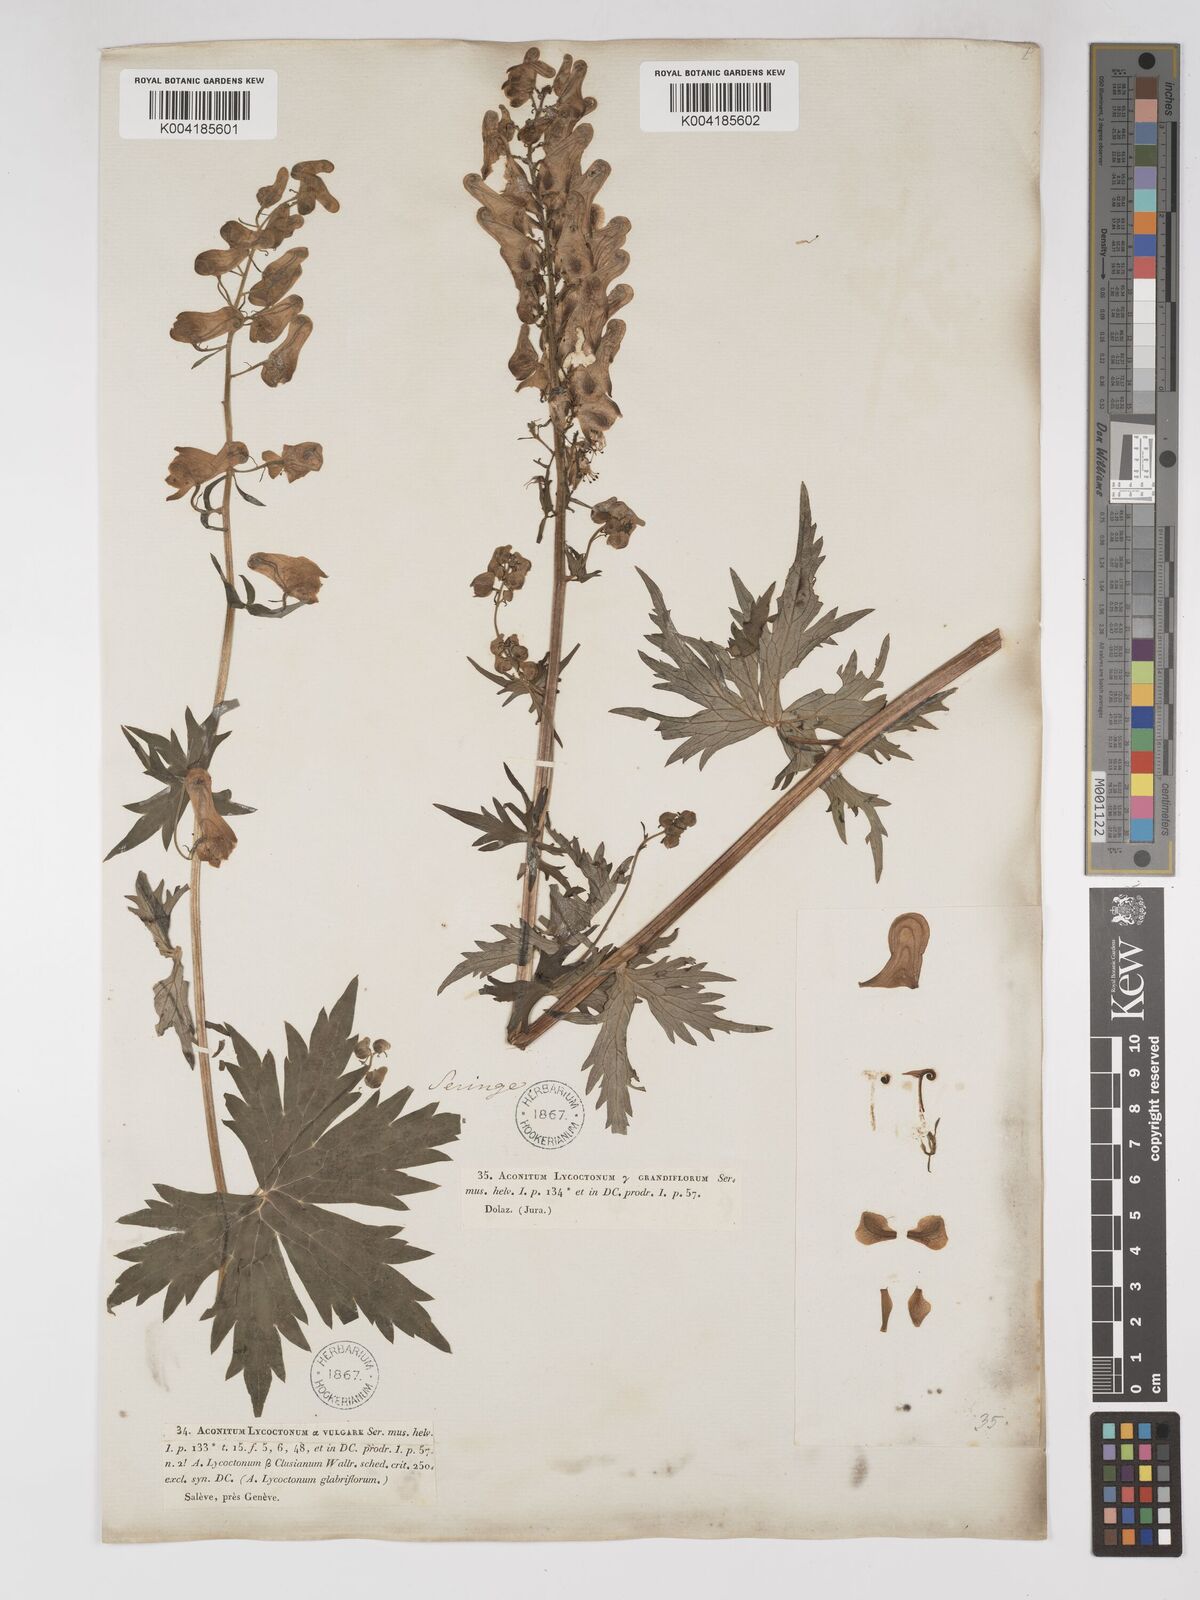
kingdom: Plantae
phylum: Tracheophyta
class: Magnoliopsida
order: Ranunculales
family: Ranunculaceae
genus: Aconitum
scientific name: Aconitum lycoctonum
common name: Wolf's-bane
